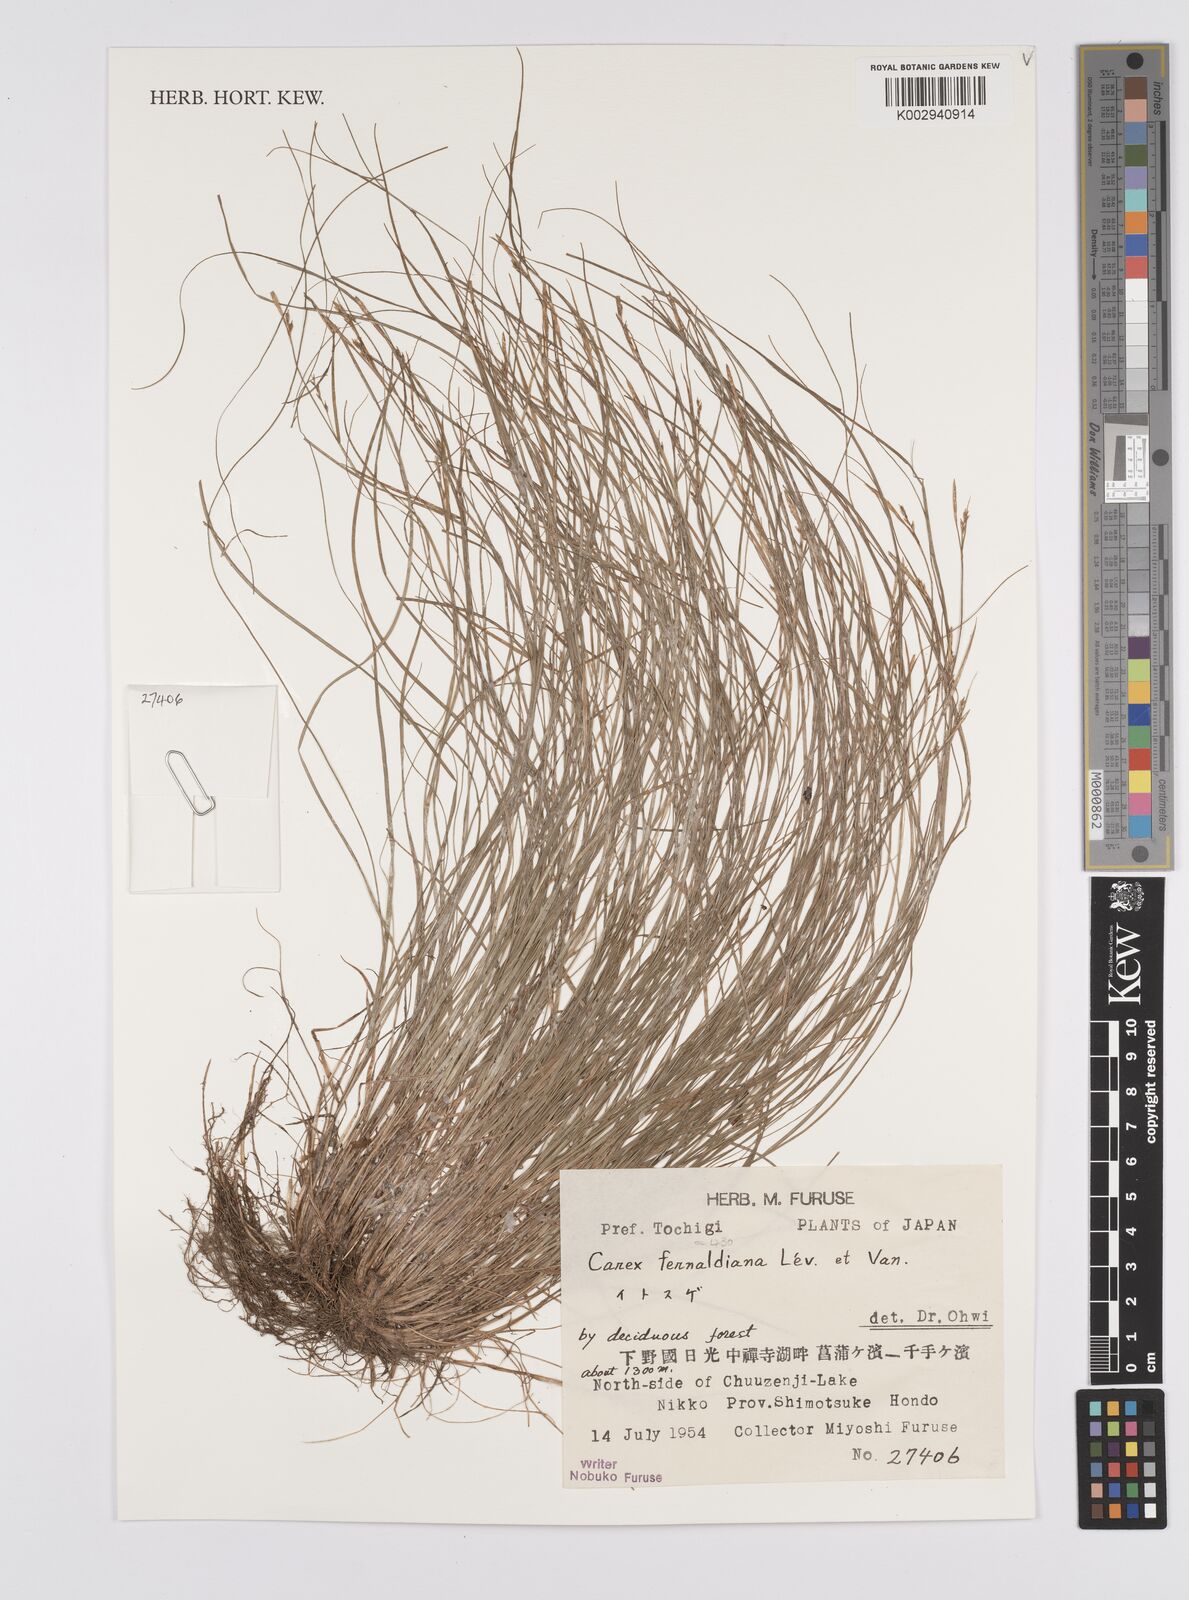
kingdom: Plantae
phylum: Tracheophyta
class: Liliopsida
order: Poales
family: Cyperaceae
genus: Carex
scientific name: Carex breviculmis
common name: Asian shortstem sedge
